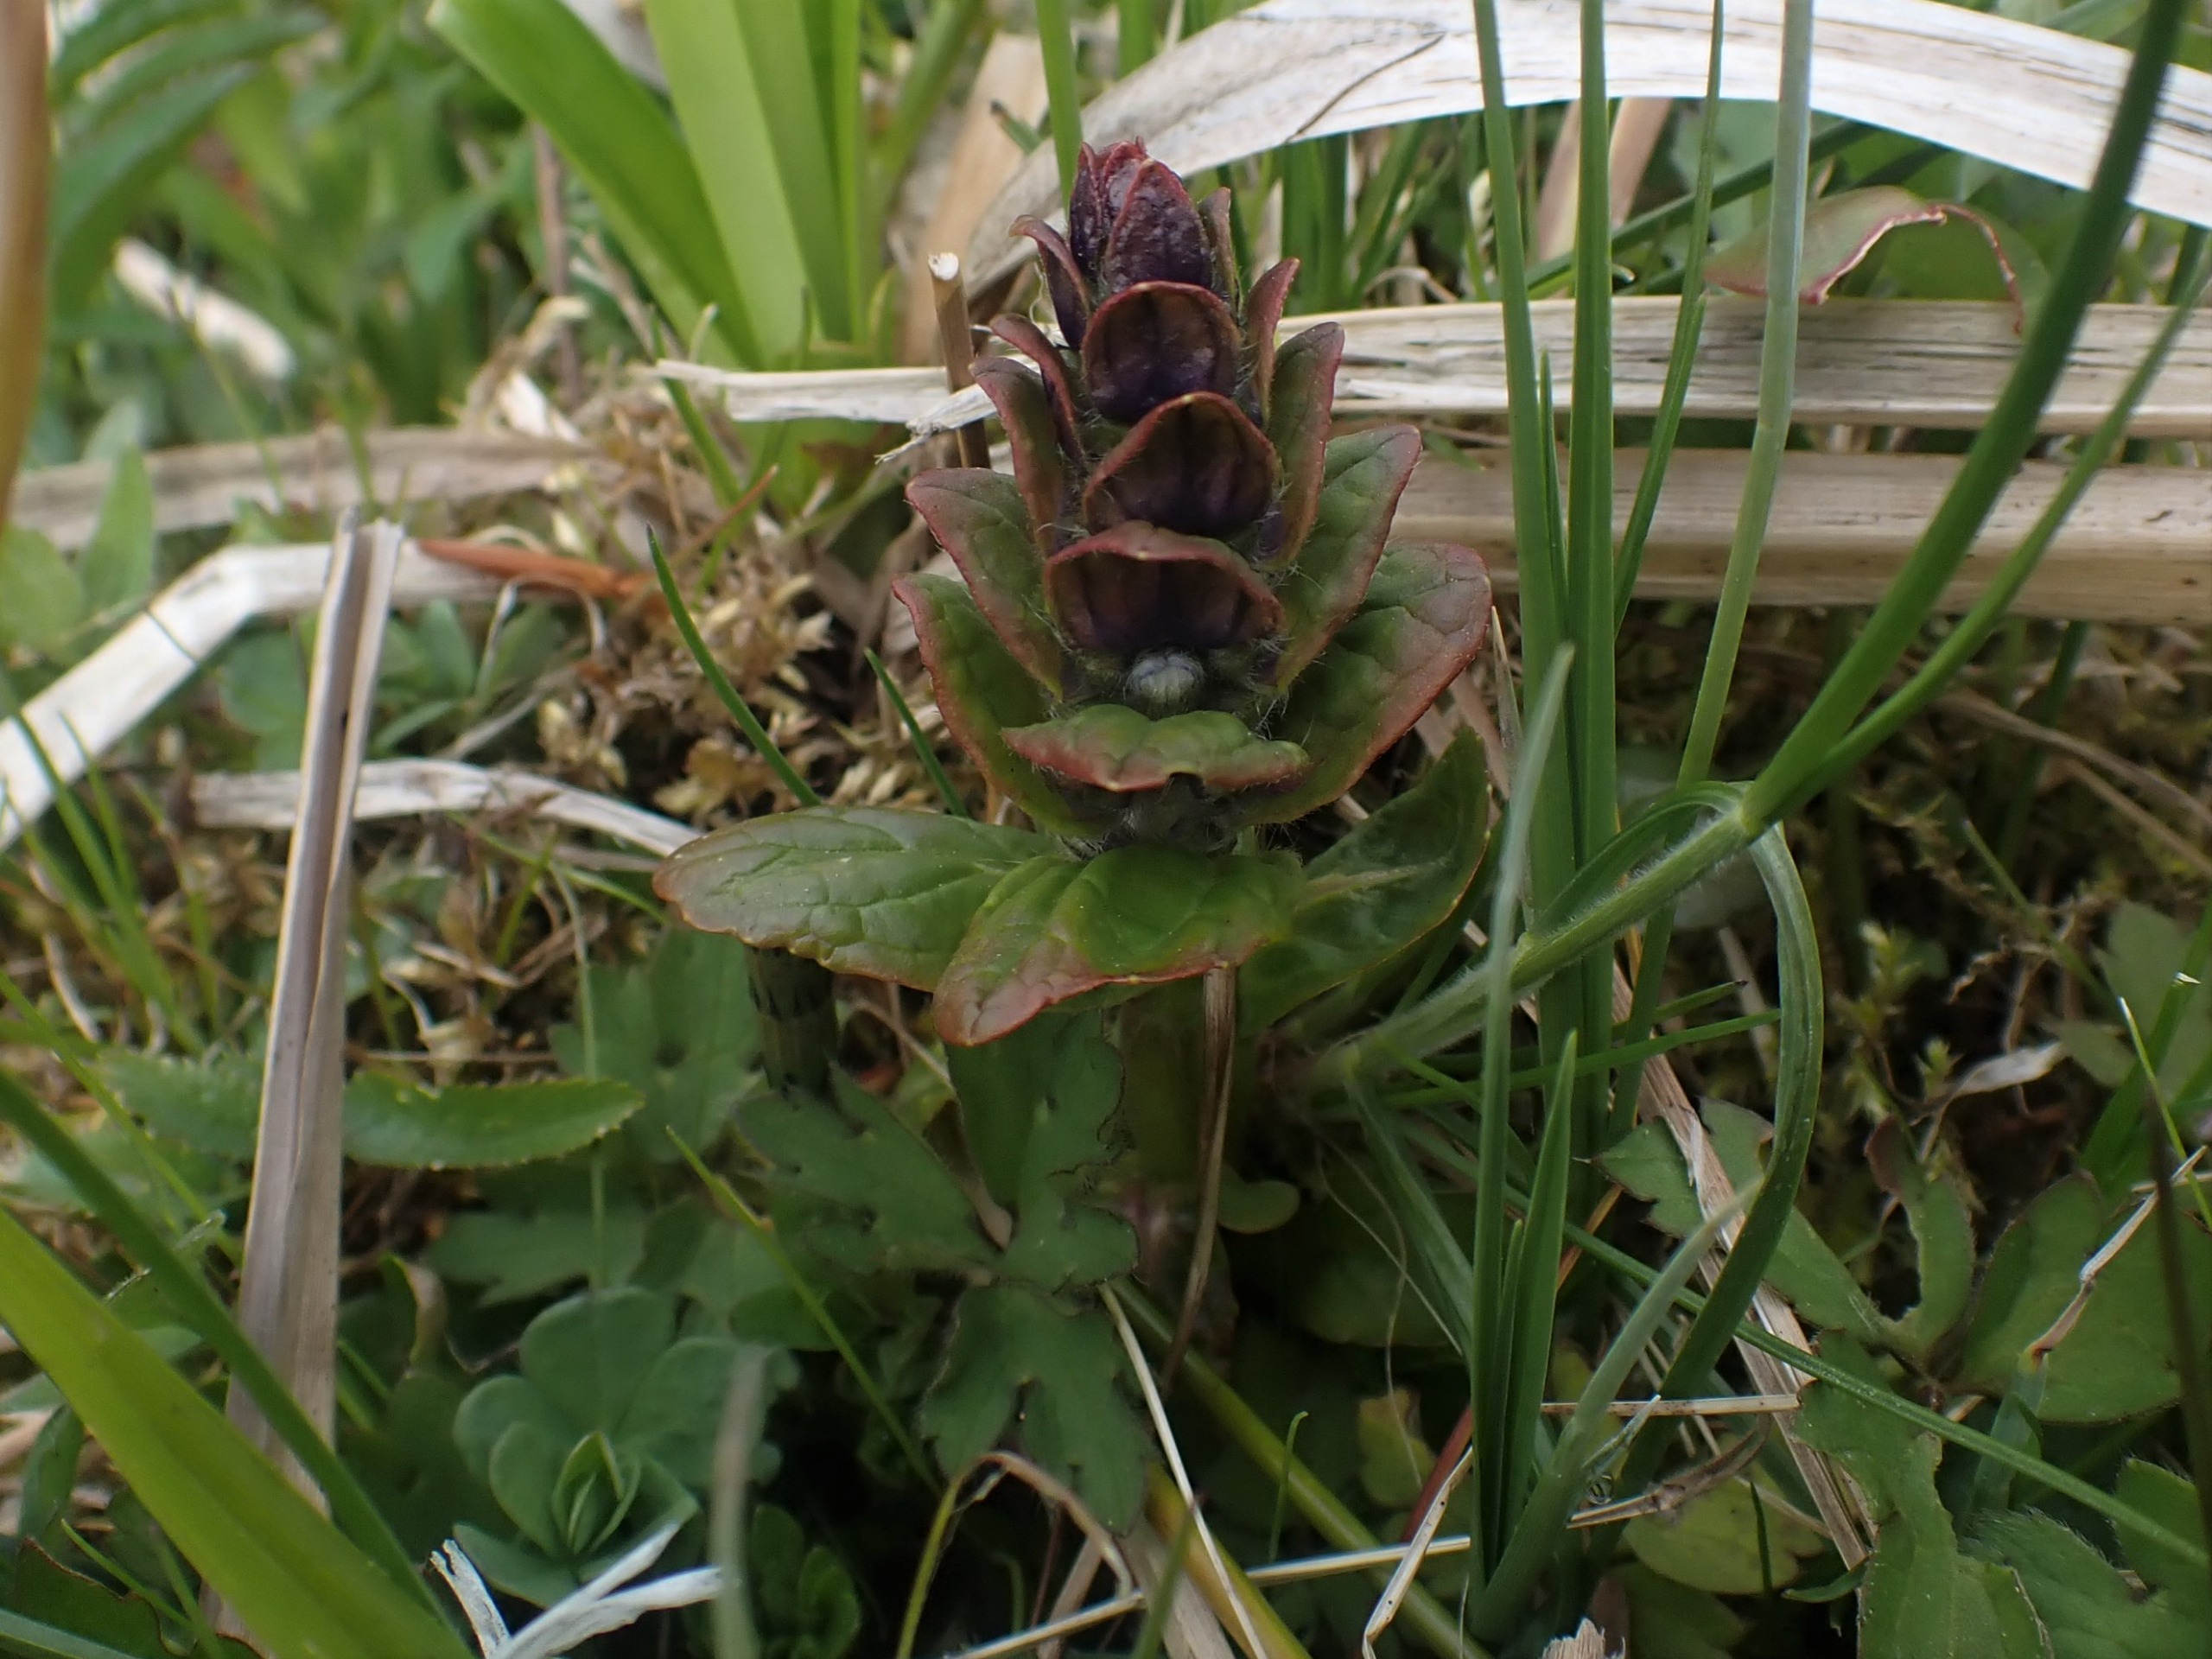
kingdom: Plantae
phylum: Tracheophyta
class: Magnoliopsida
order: Lamiales
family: Lamiaceae
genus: Ajuga
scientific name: Ajuga reptans
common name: Krybende læbeløs
